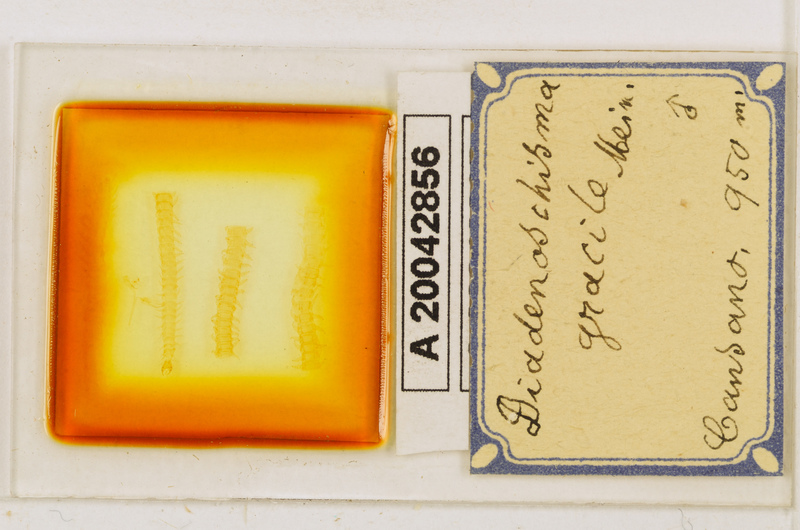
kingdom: Animalia
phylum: Arthropoda
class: Chilopoda
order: Geophilomorpha
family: Himantariidae
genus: Stigmatogaster
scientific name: Stigmatogaster
